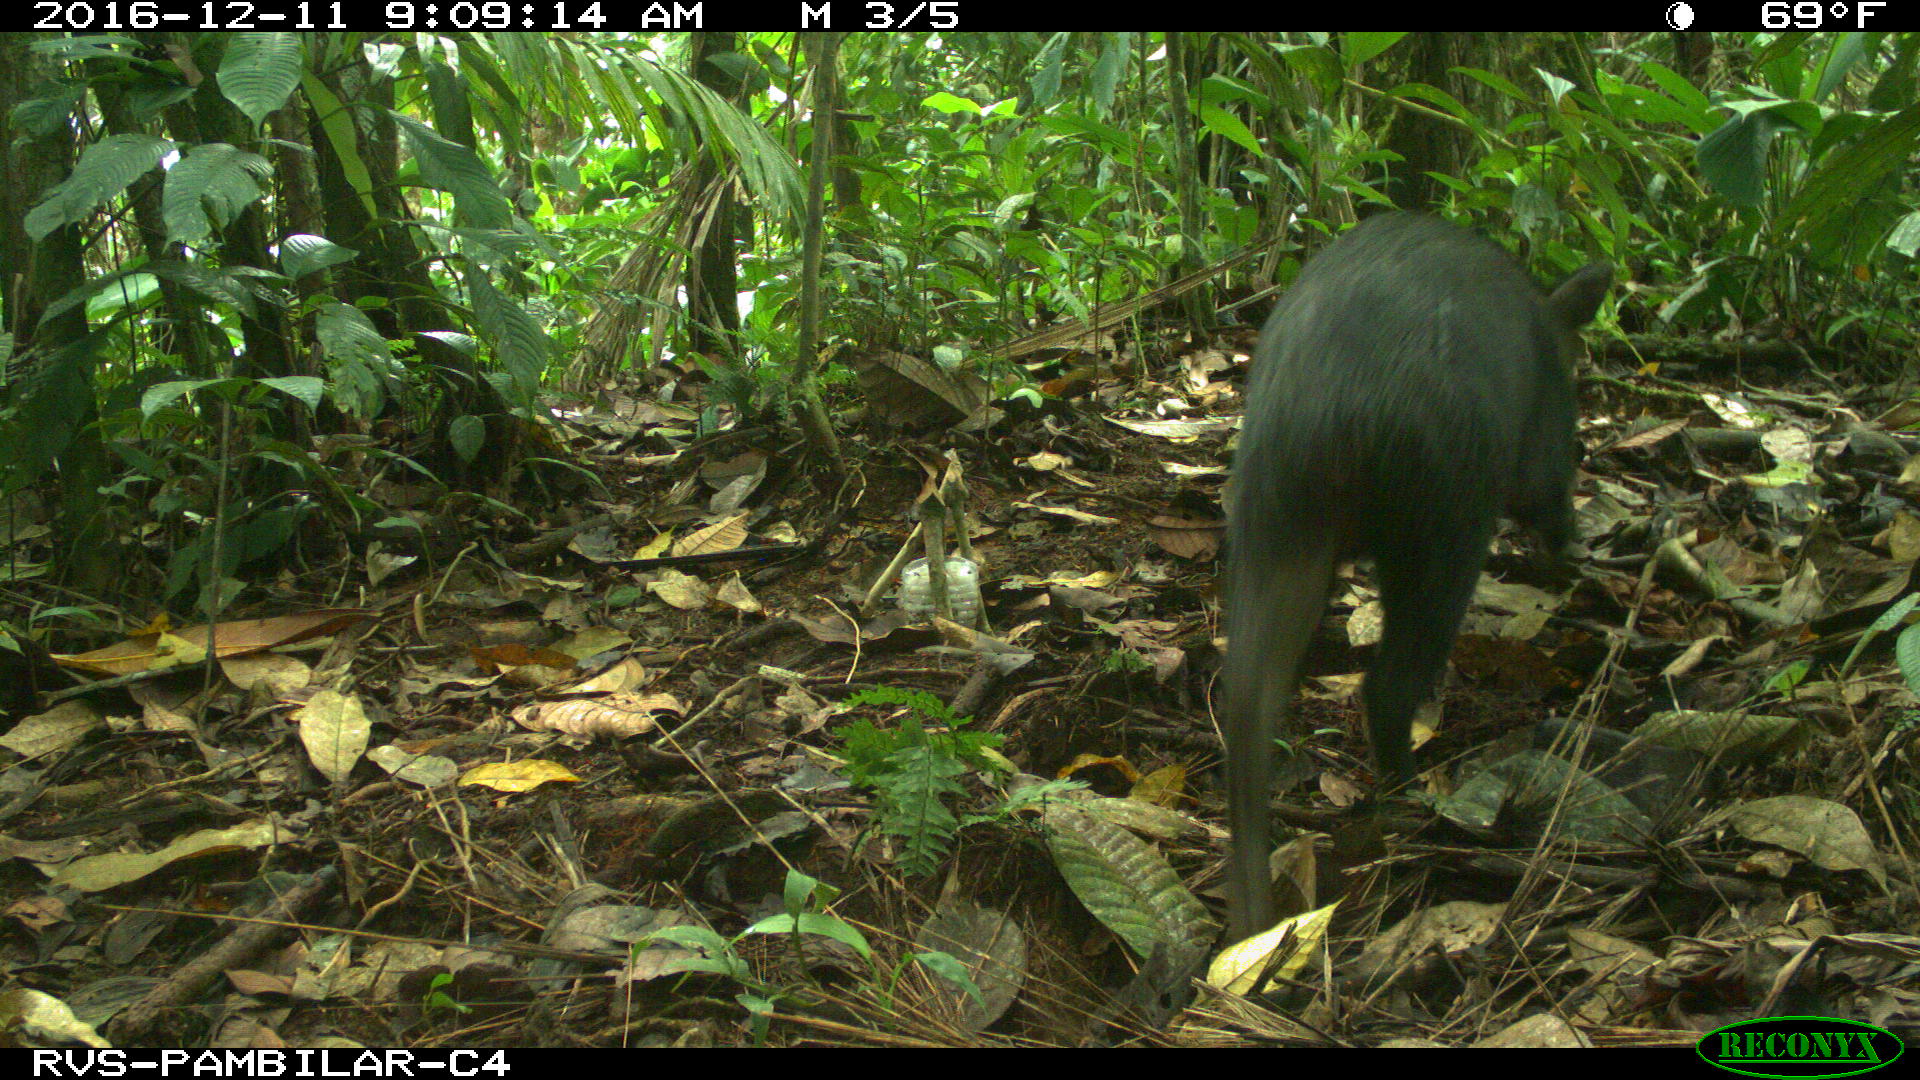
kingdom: Animalia
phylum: Chordata
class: Mammalia
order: Artiodactyla
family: Tayassuidae
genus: Tayassu
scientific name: Tayassu pecari
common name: White-lipped peccary
